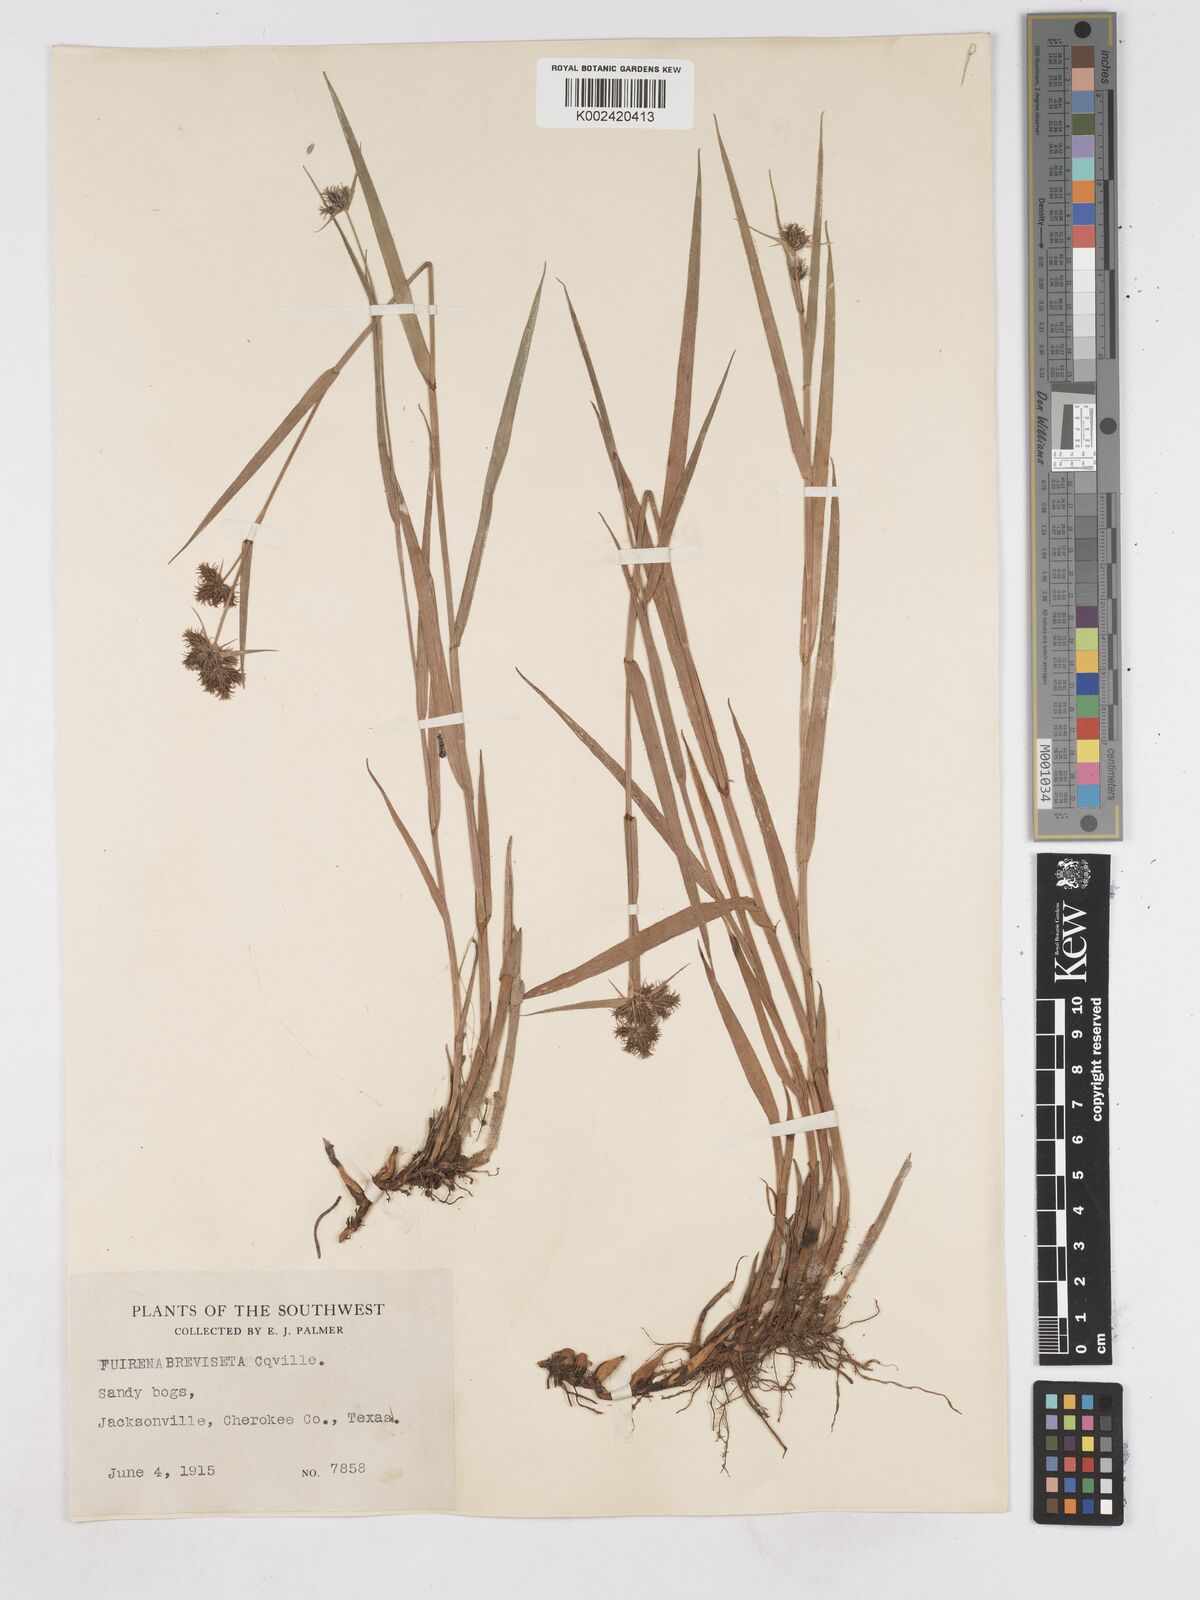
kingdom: Plantae
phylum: Tracheophyta
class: Liliopsida
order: Poales
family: Cyperaceae
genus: Fuirena
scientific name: Fuirena breviseta
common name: Saltmarsh umbrella sedge
